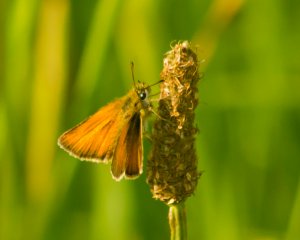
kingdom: Animalia
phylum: Arthropoda
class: Insecta
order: Lepidoptera
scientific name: Lepidoptera
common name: Butterflies
